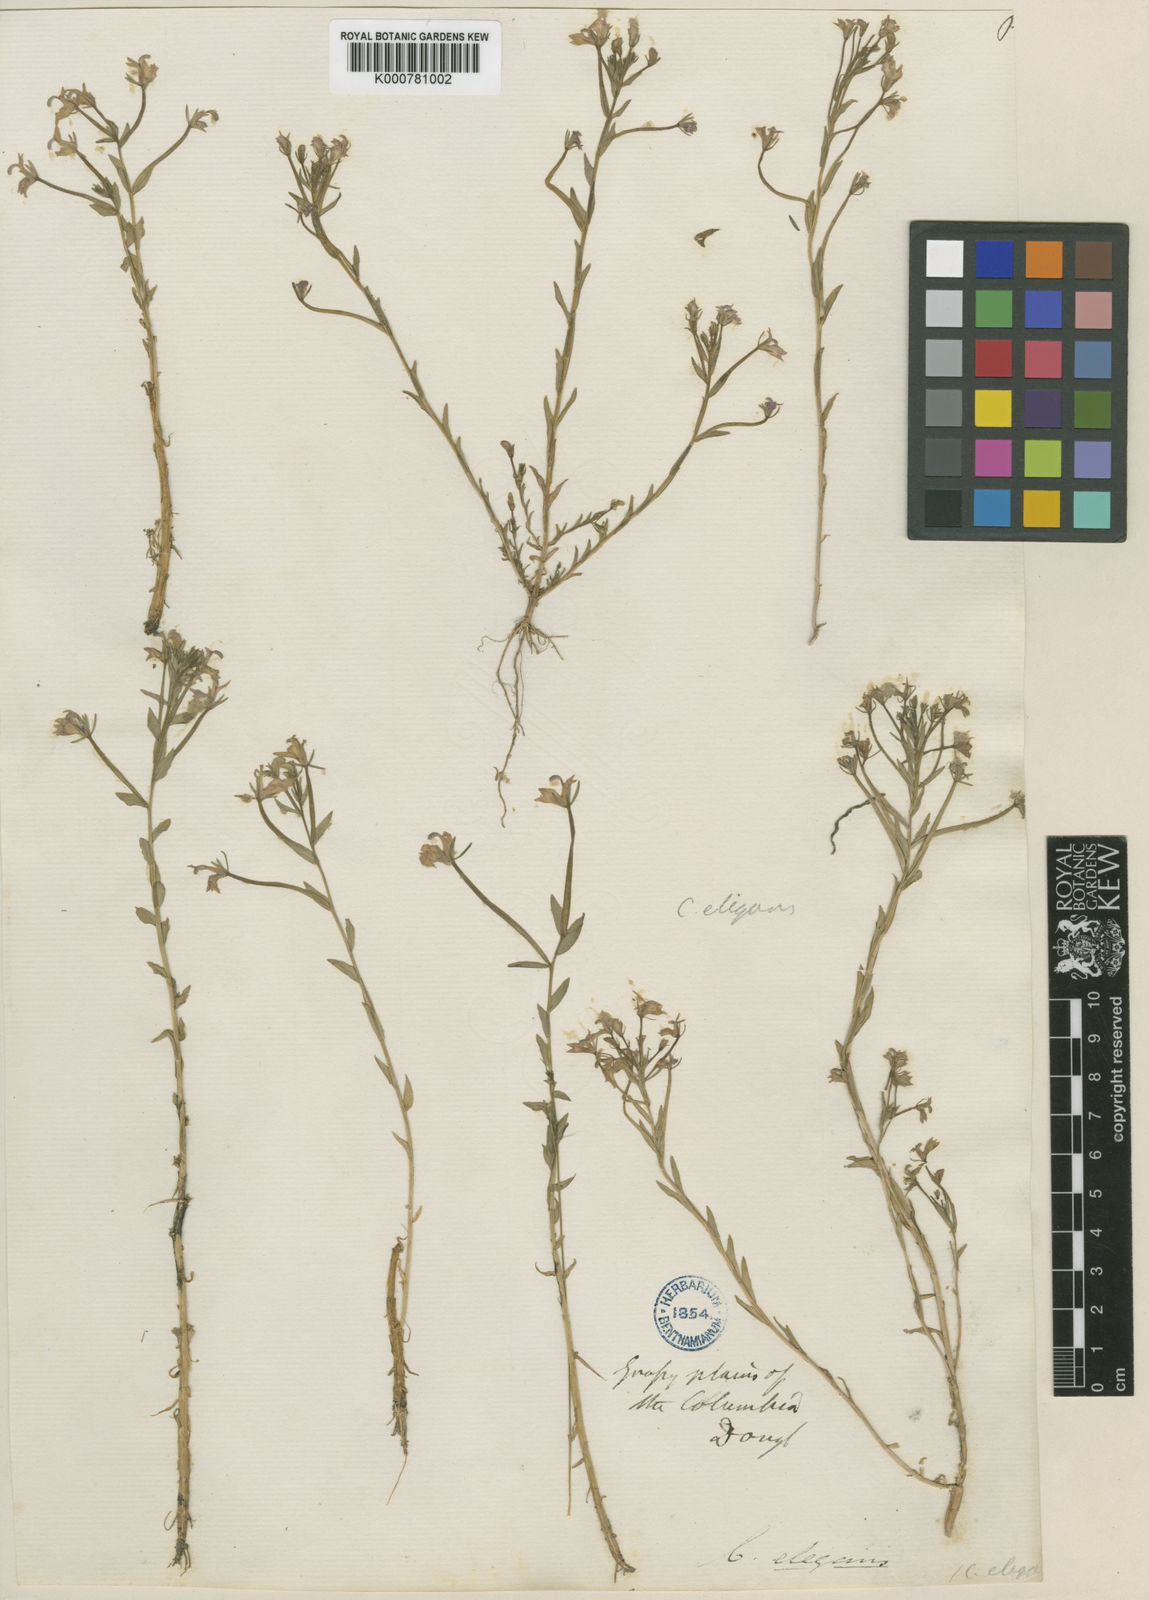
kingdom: Plantae
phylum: Tracheophyta
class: Magnoliopsida
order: Asterales
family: Campanulaceae
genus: Downingia
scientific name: Downingia elegans
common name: Californian lobelia
